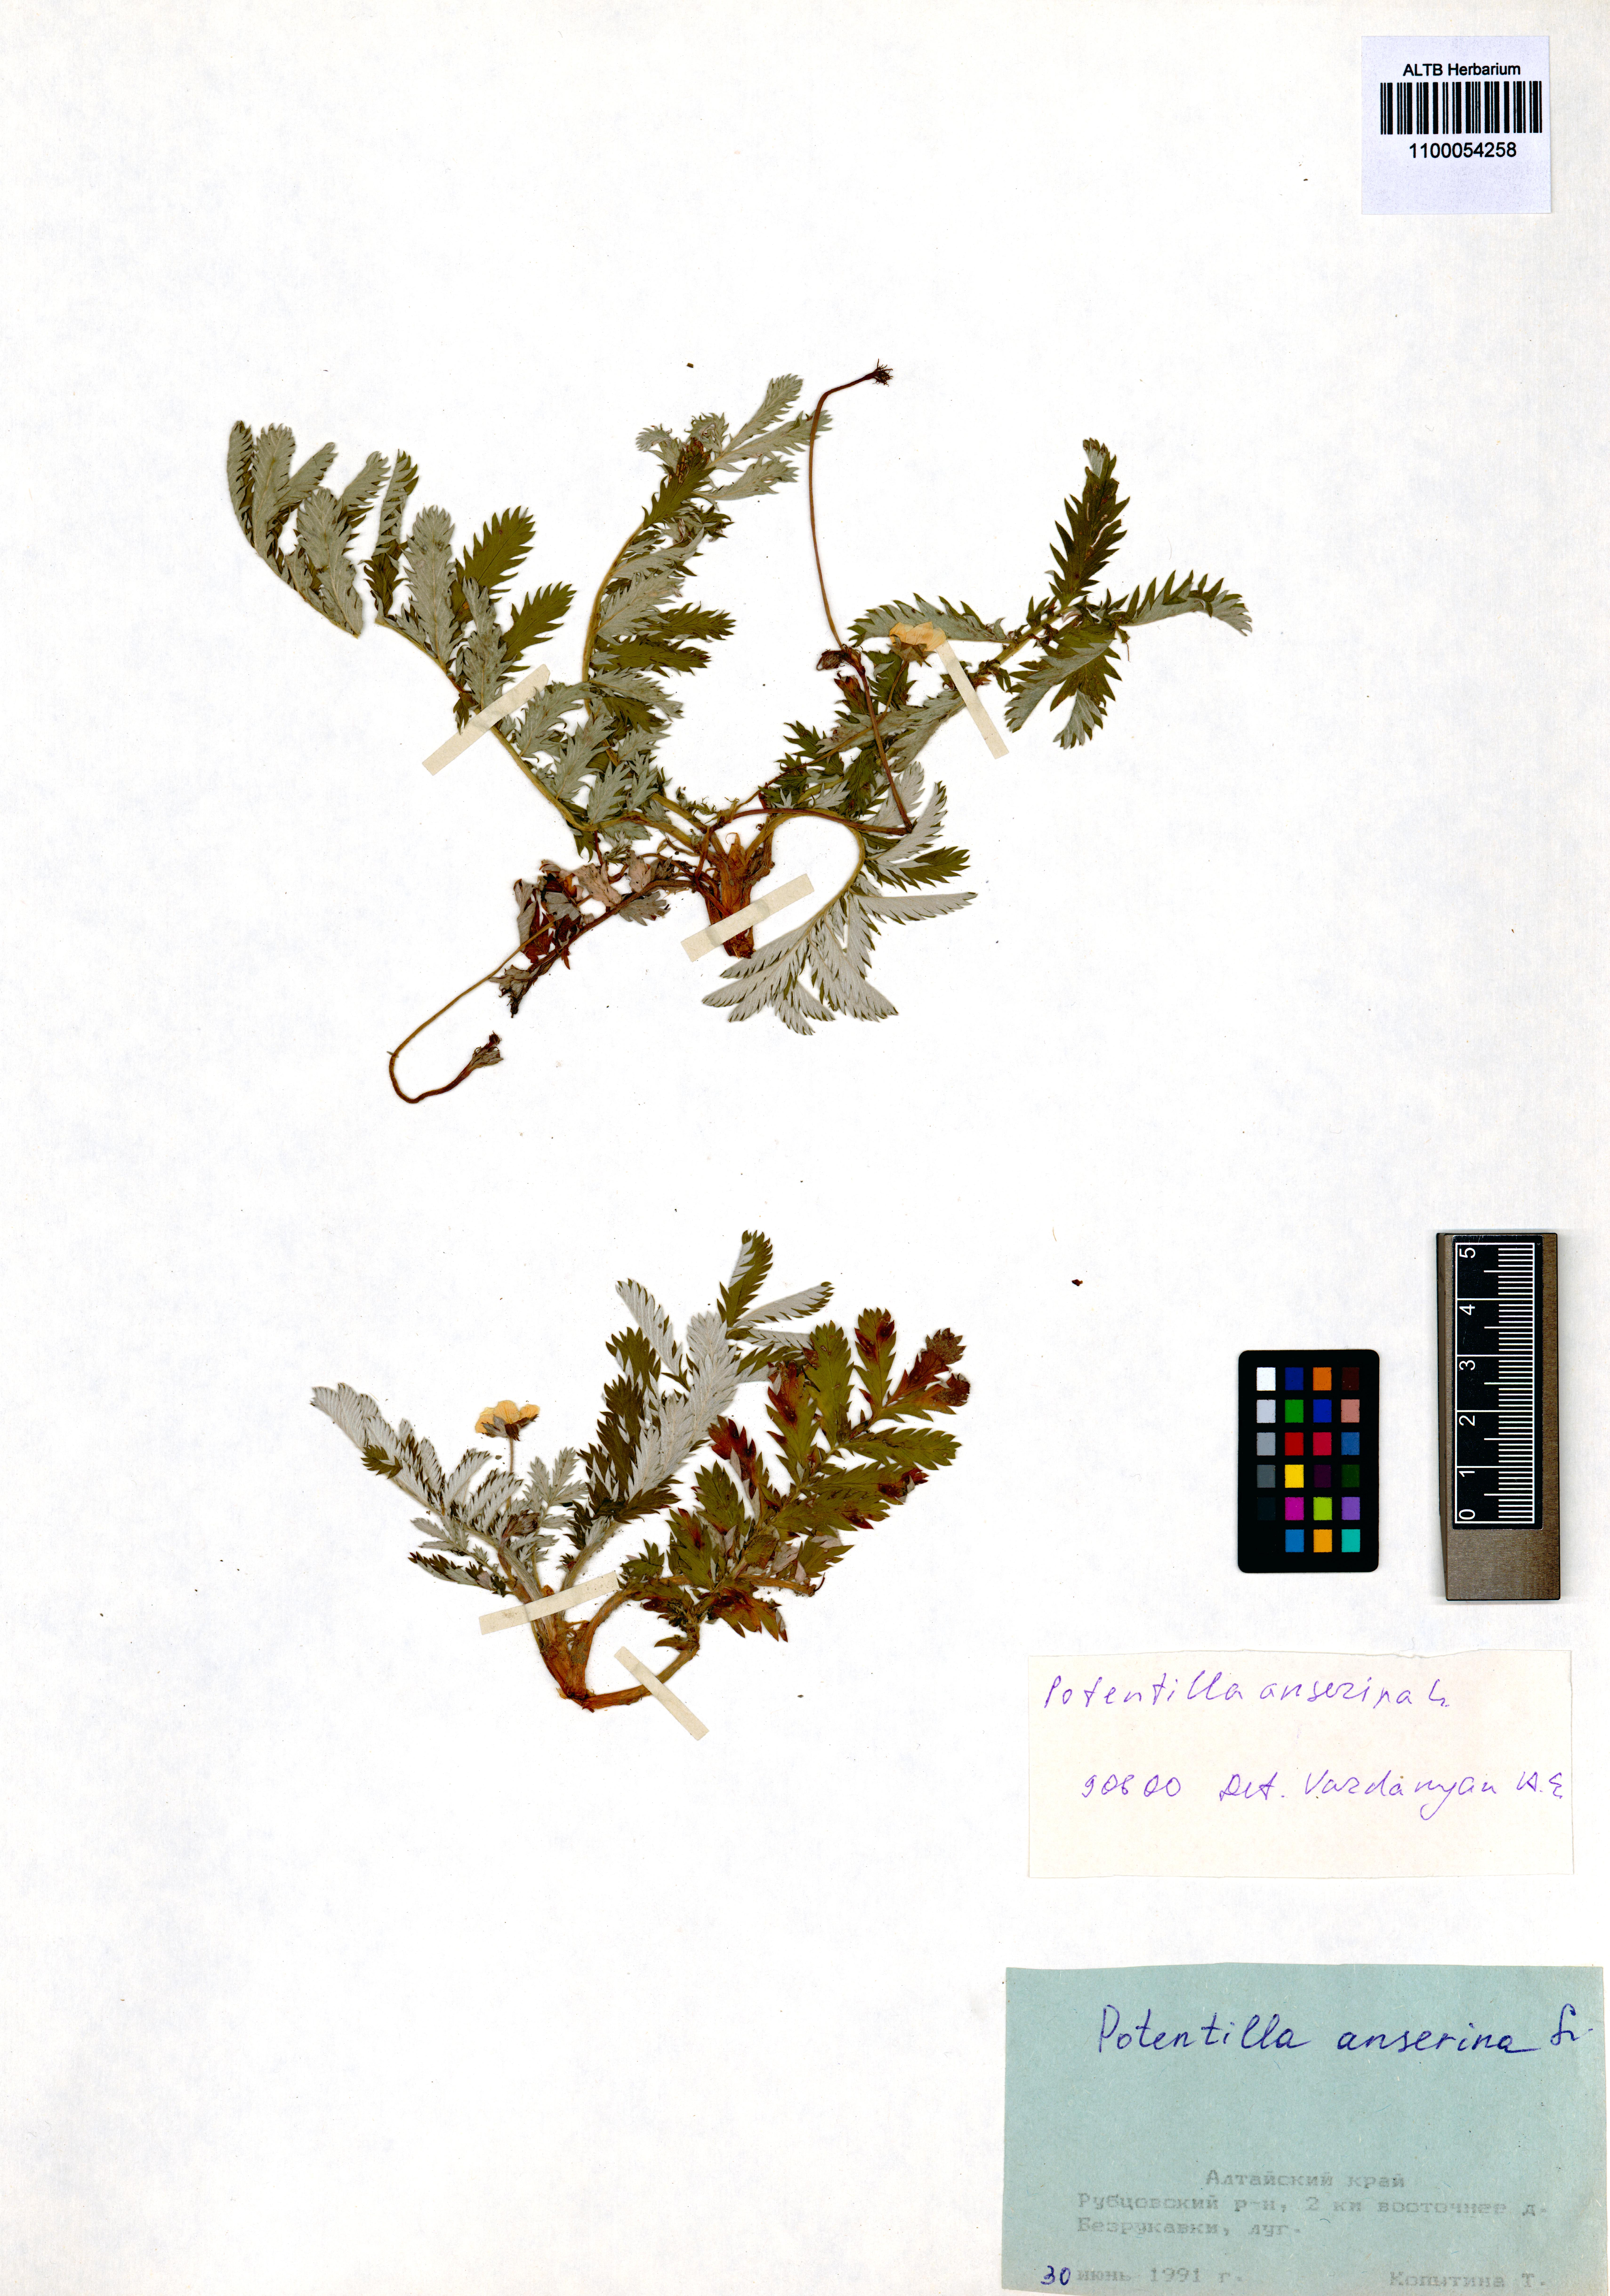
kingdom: Plantae
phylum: Tracheophyta
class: Magnoliopsida
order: Rosales
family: Rosaceae
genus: Argentina
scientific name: Argentina anserina
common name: Common silverweed
